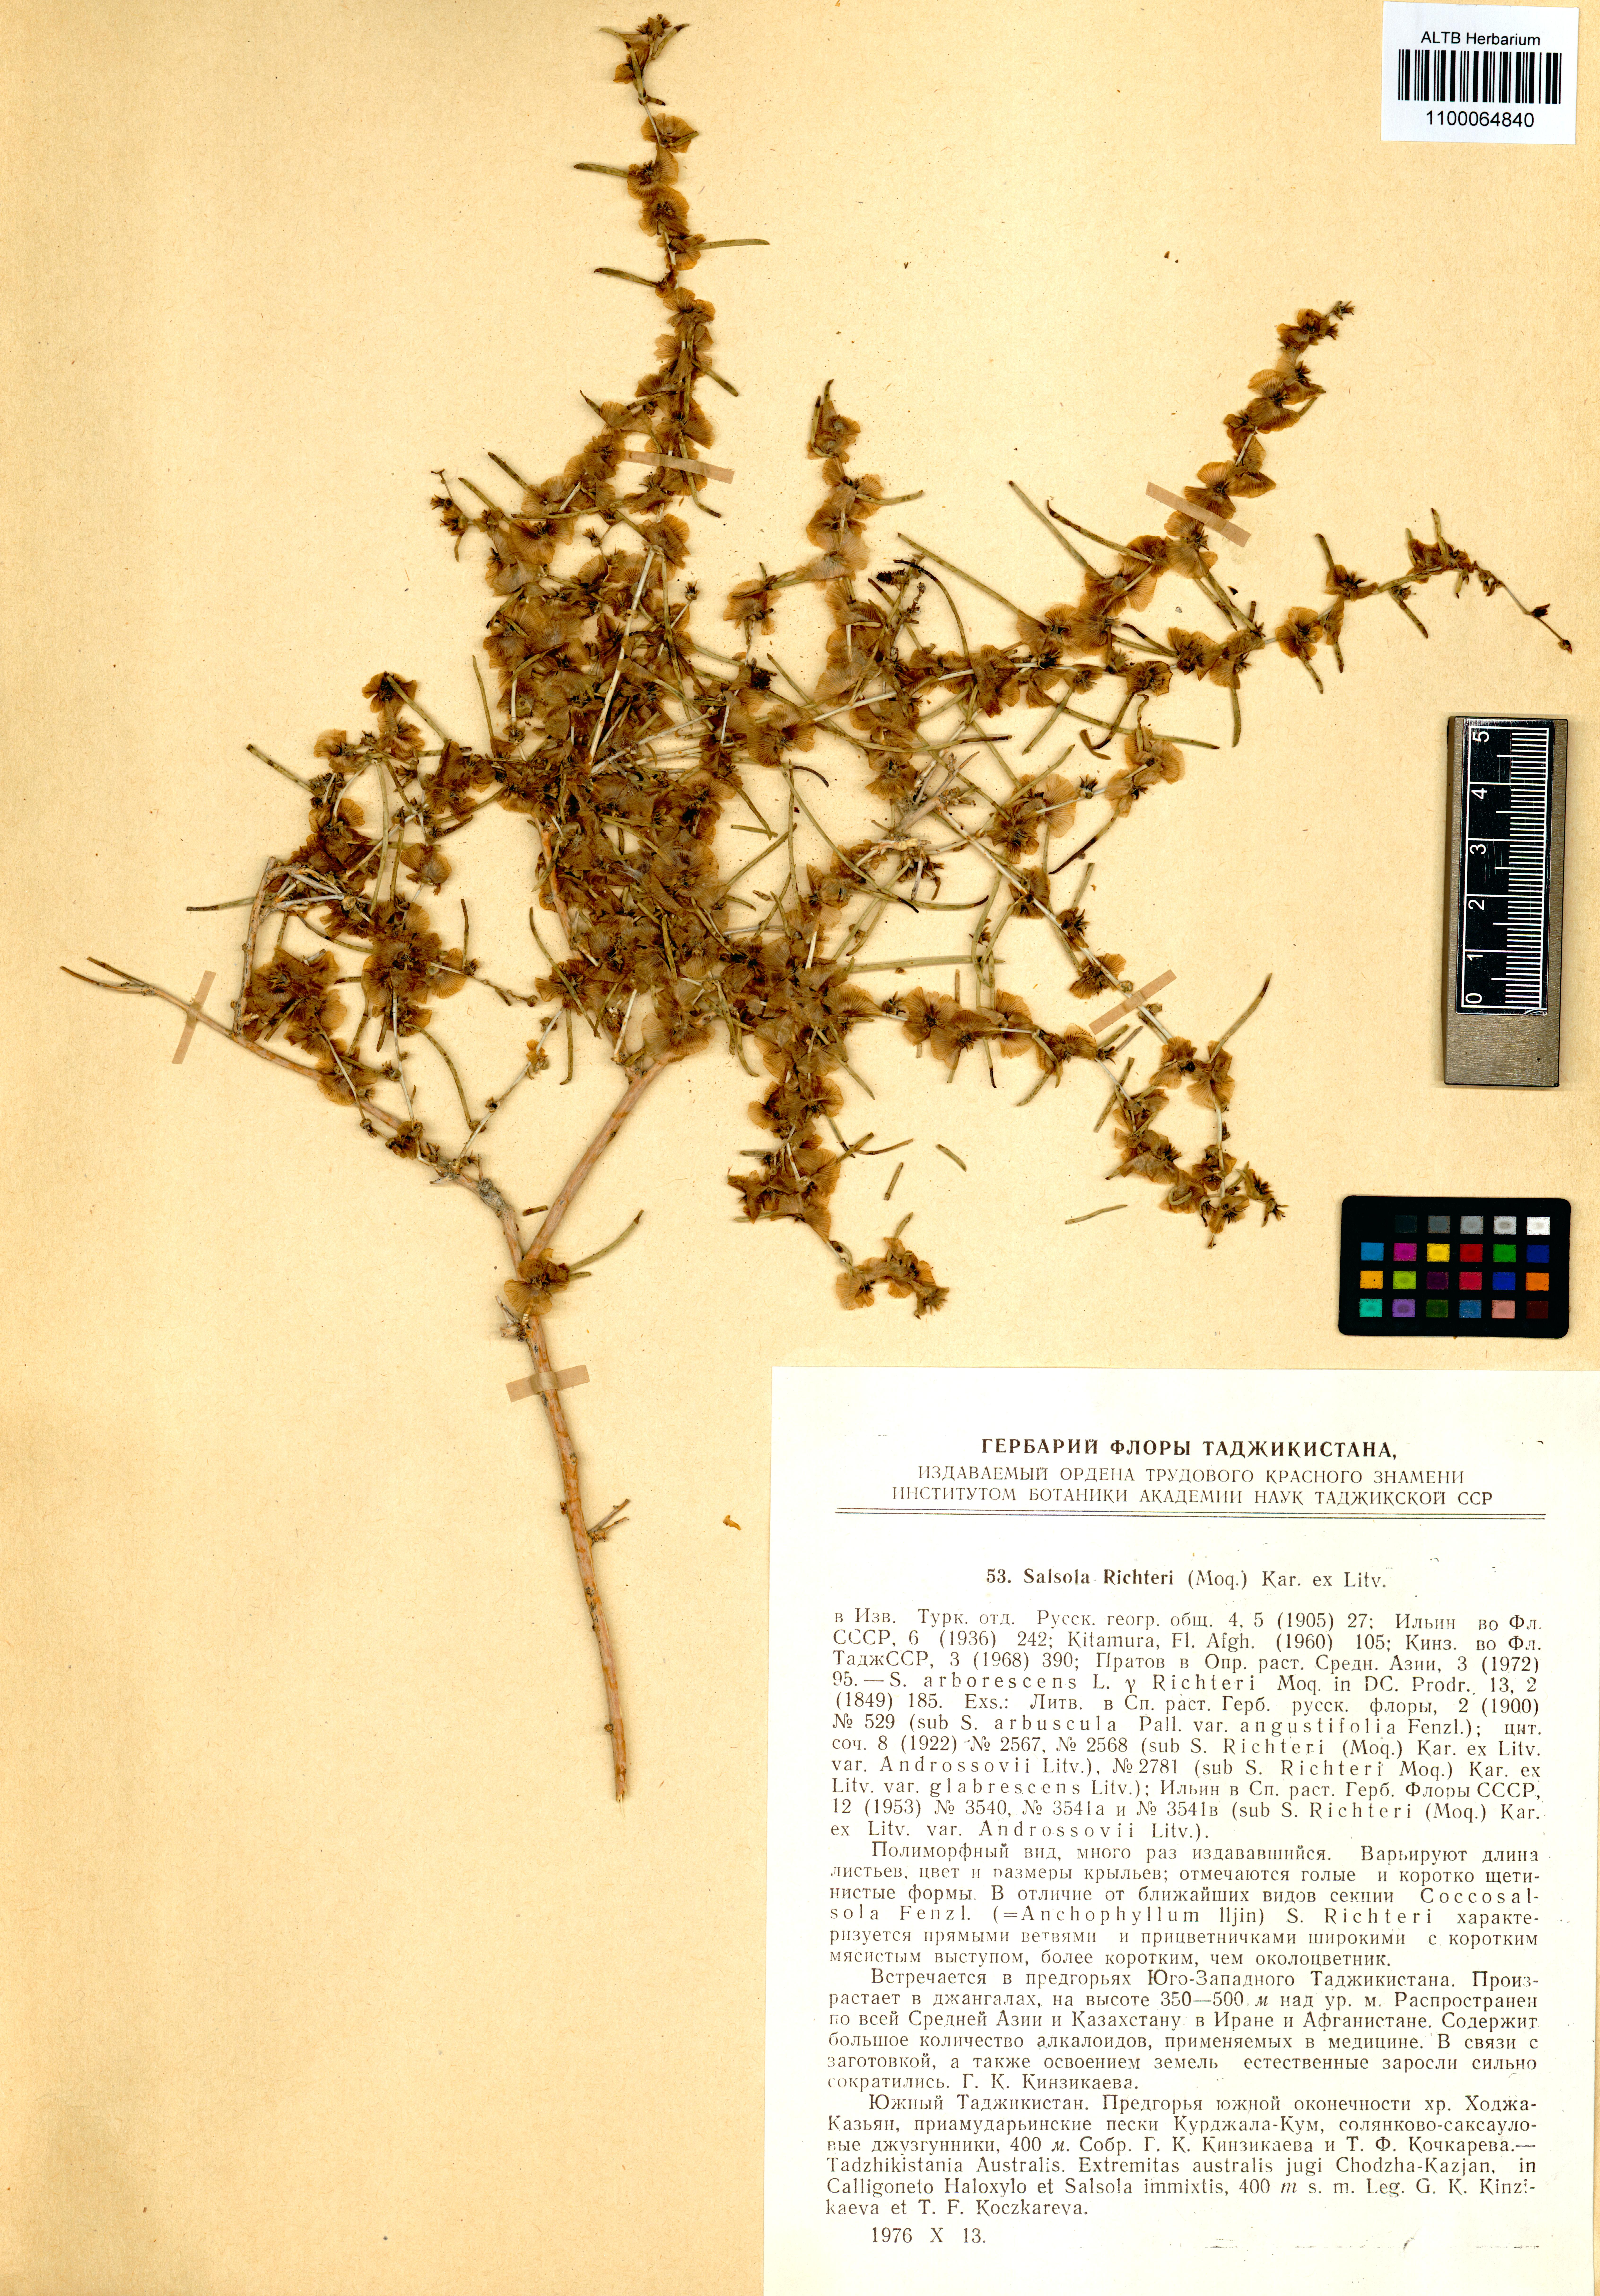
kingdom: Plantae
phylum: Tracheophyta
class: Magnoliopsida
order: Caryophyllales
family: Amaranthaceae
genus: Xylosalsola
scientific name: Xylosalsola richteri
